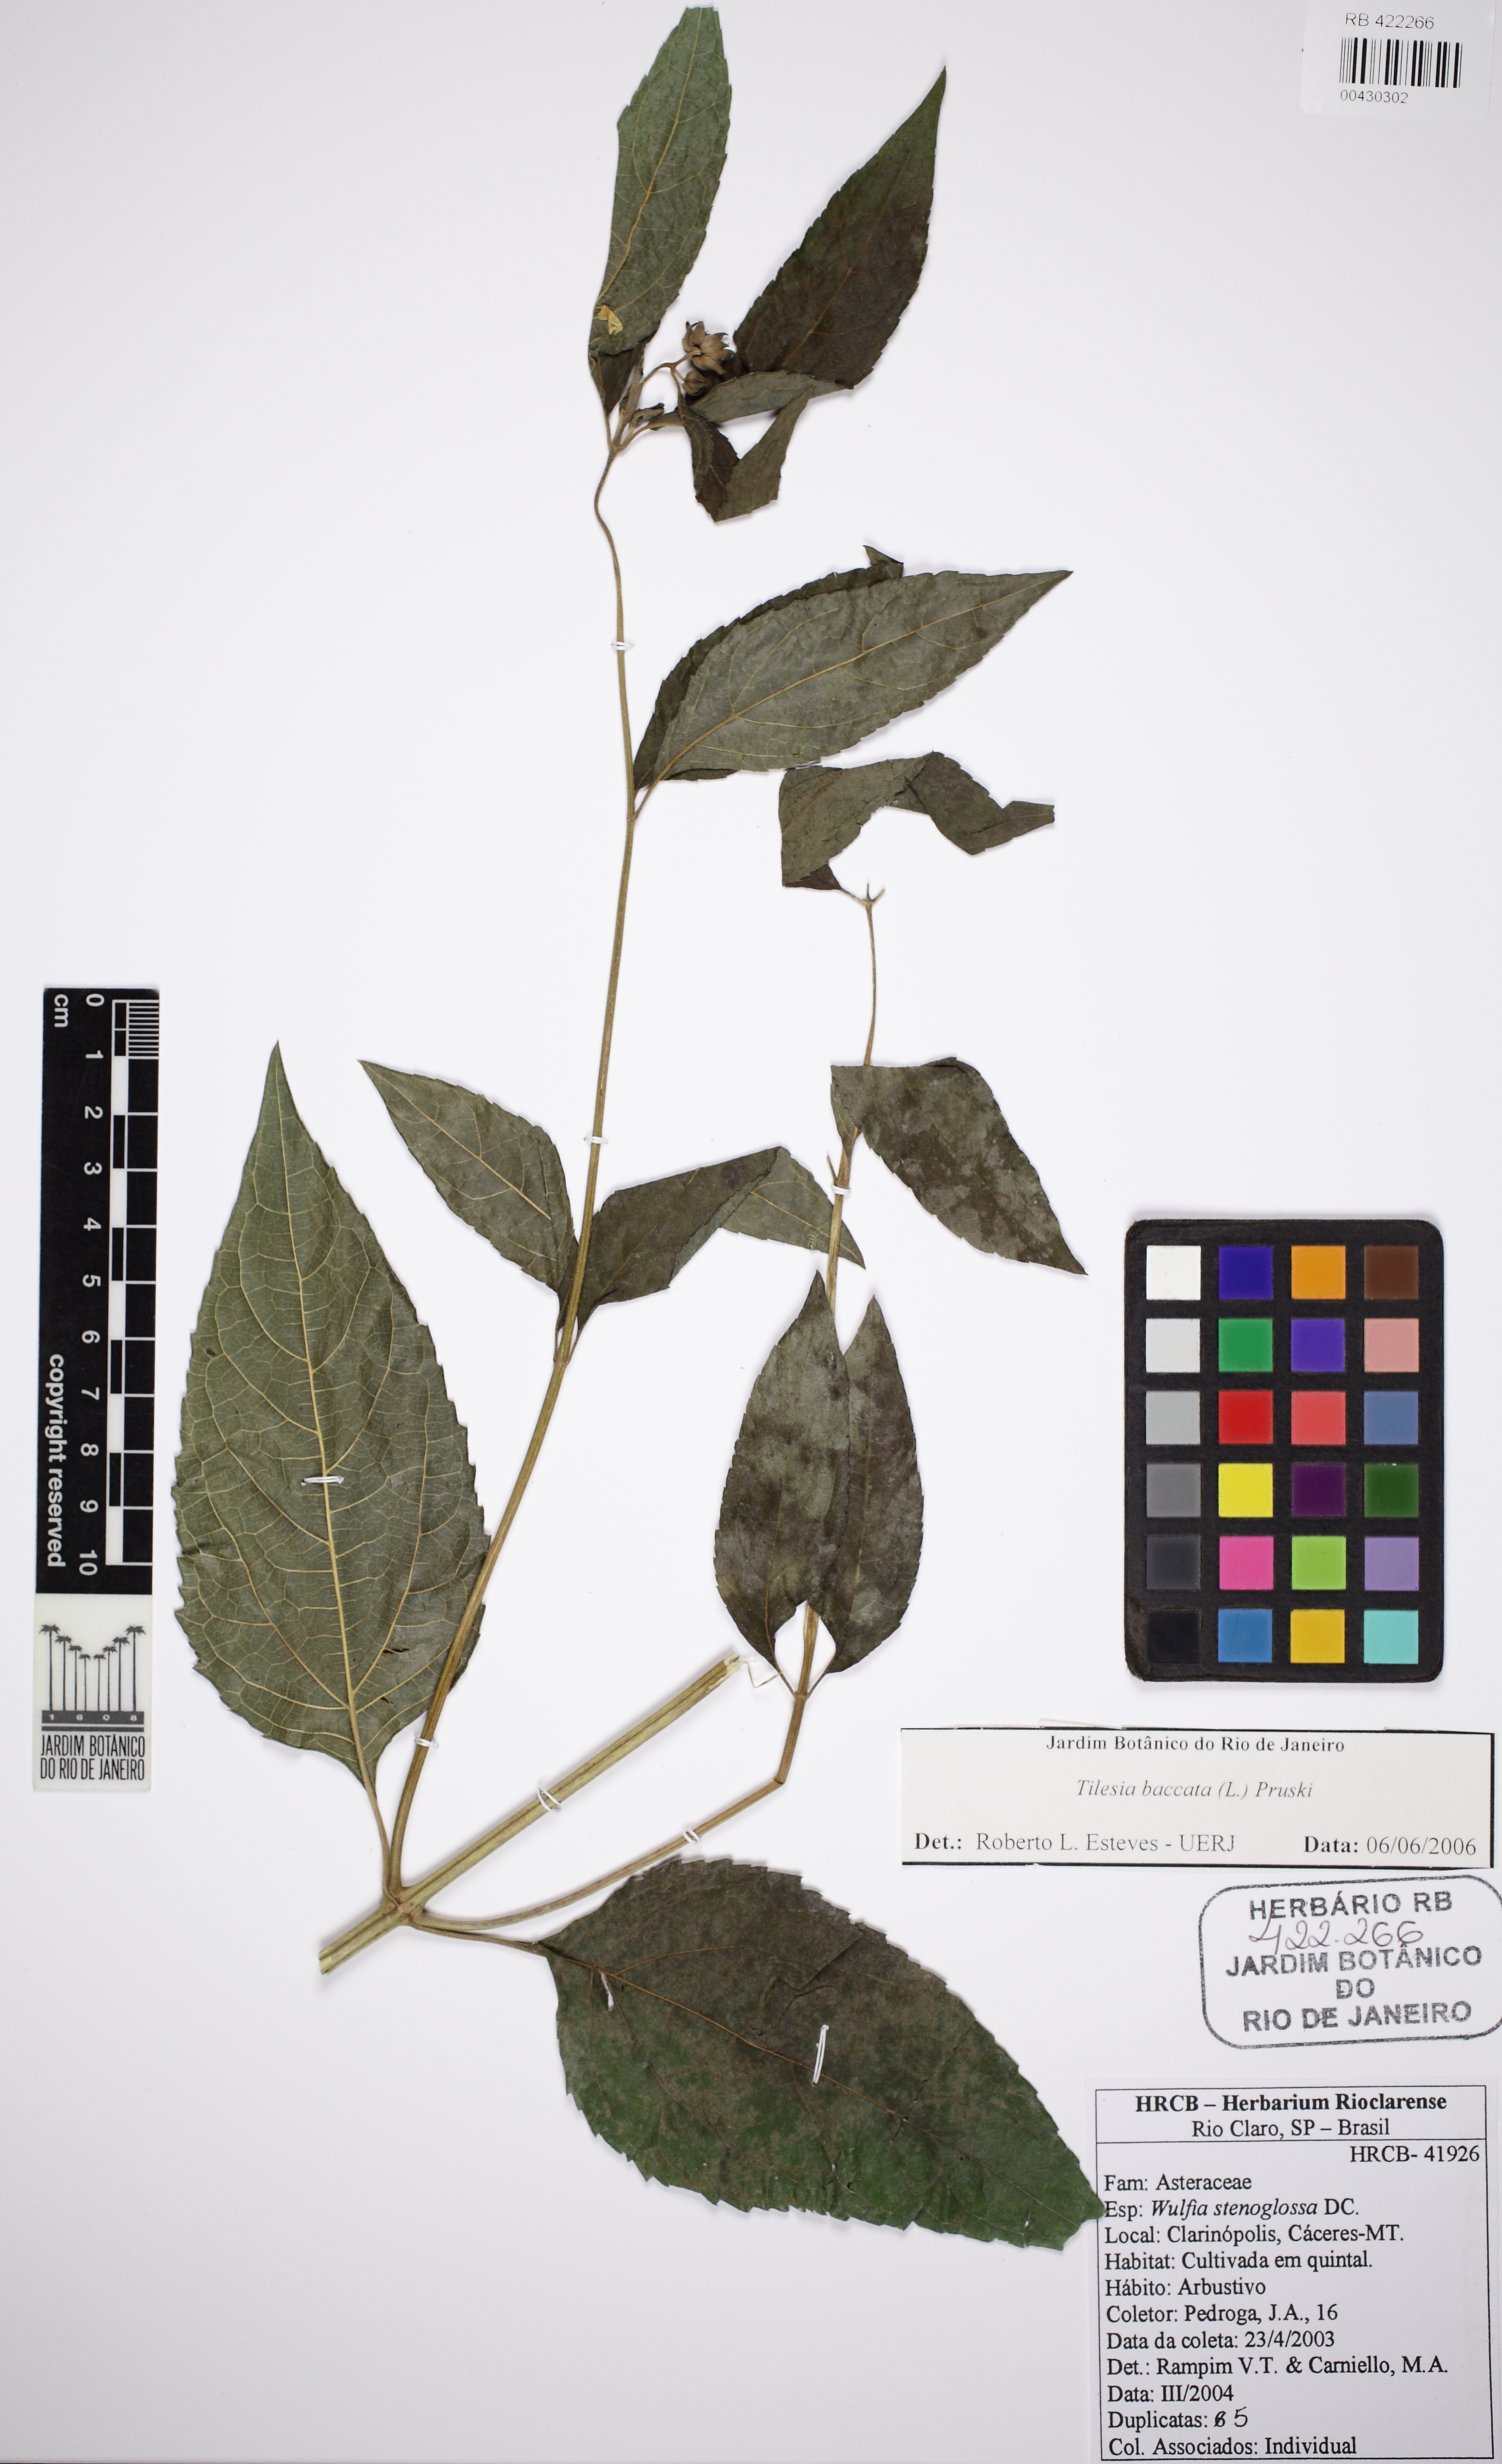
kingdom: Plantae
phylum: Tracheophyta
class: Magnoliopsida
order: Asterales
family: Asteraceae
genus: Tilesia
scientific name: Tilesia baccata
